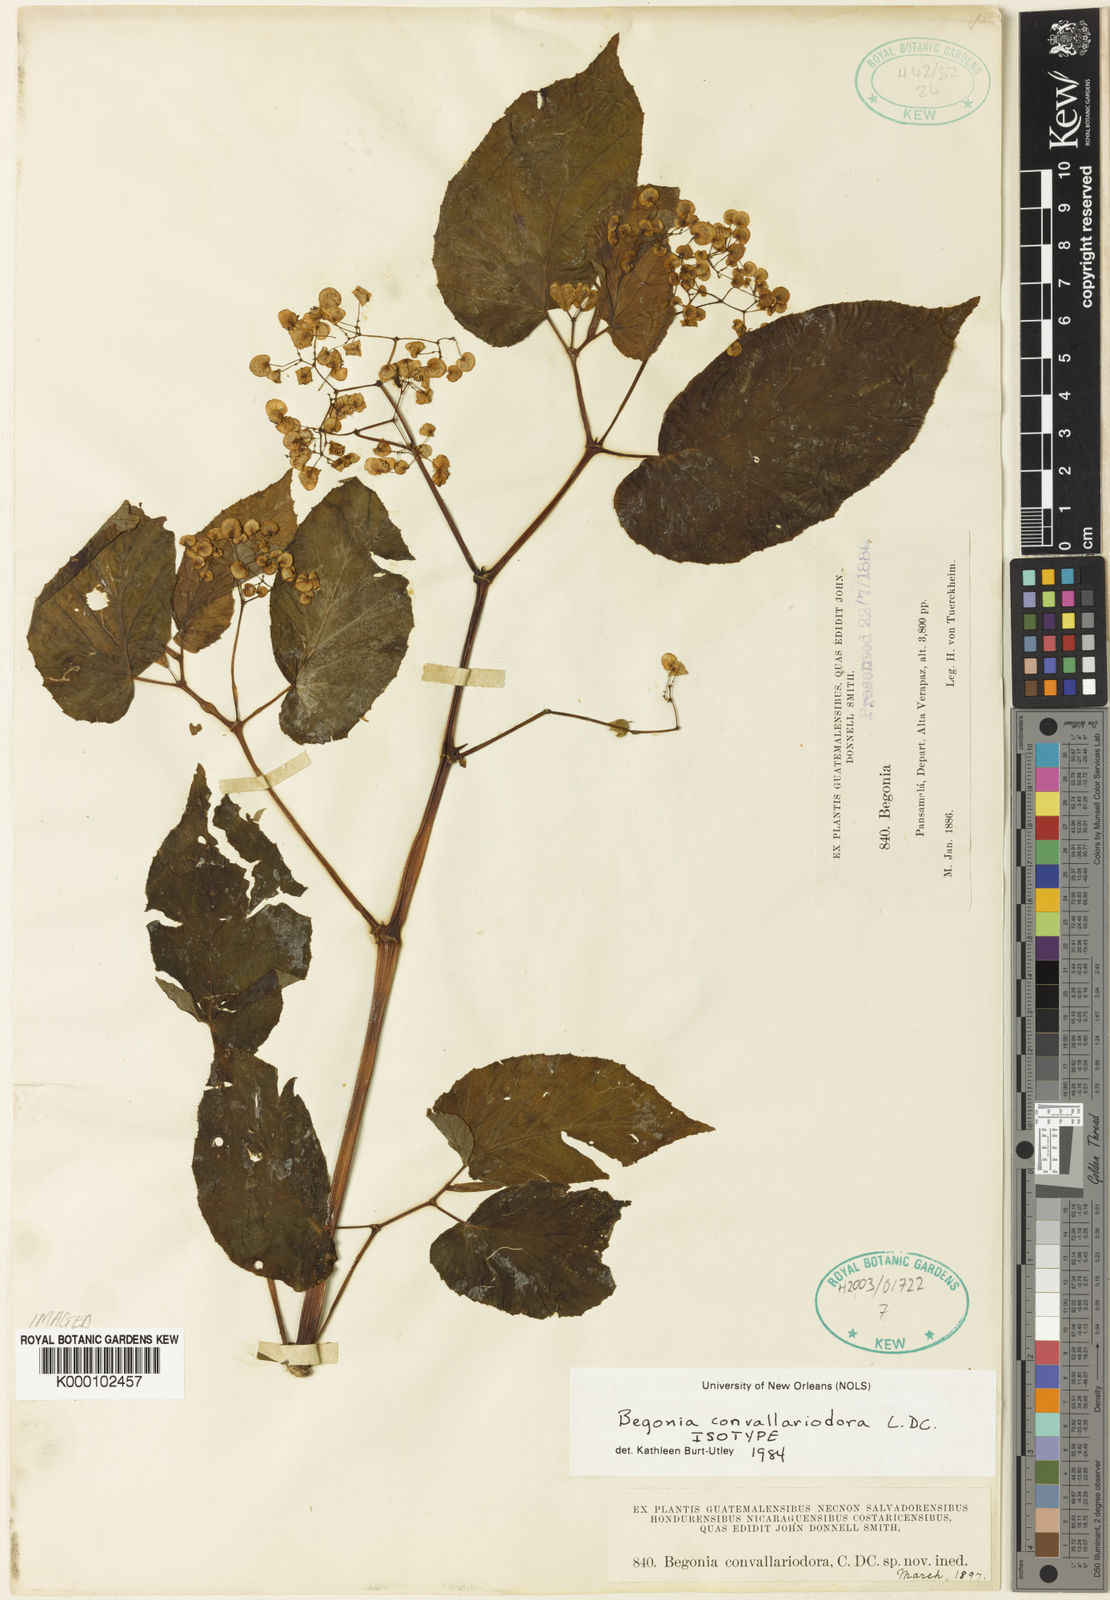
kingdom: Plantae
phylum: Tracheophyta
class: Magnoliopsida
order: Cucurbitales
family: Begoniaceae
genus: Begonia
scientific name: Begonia
